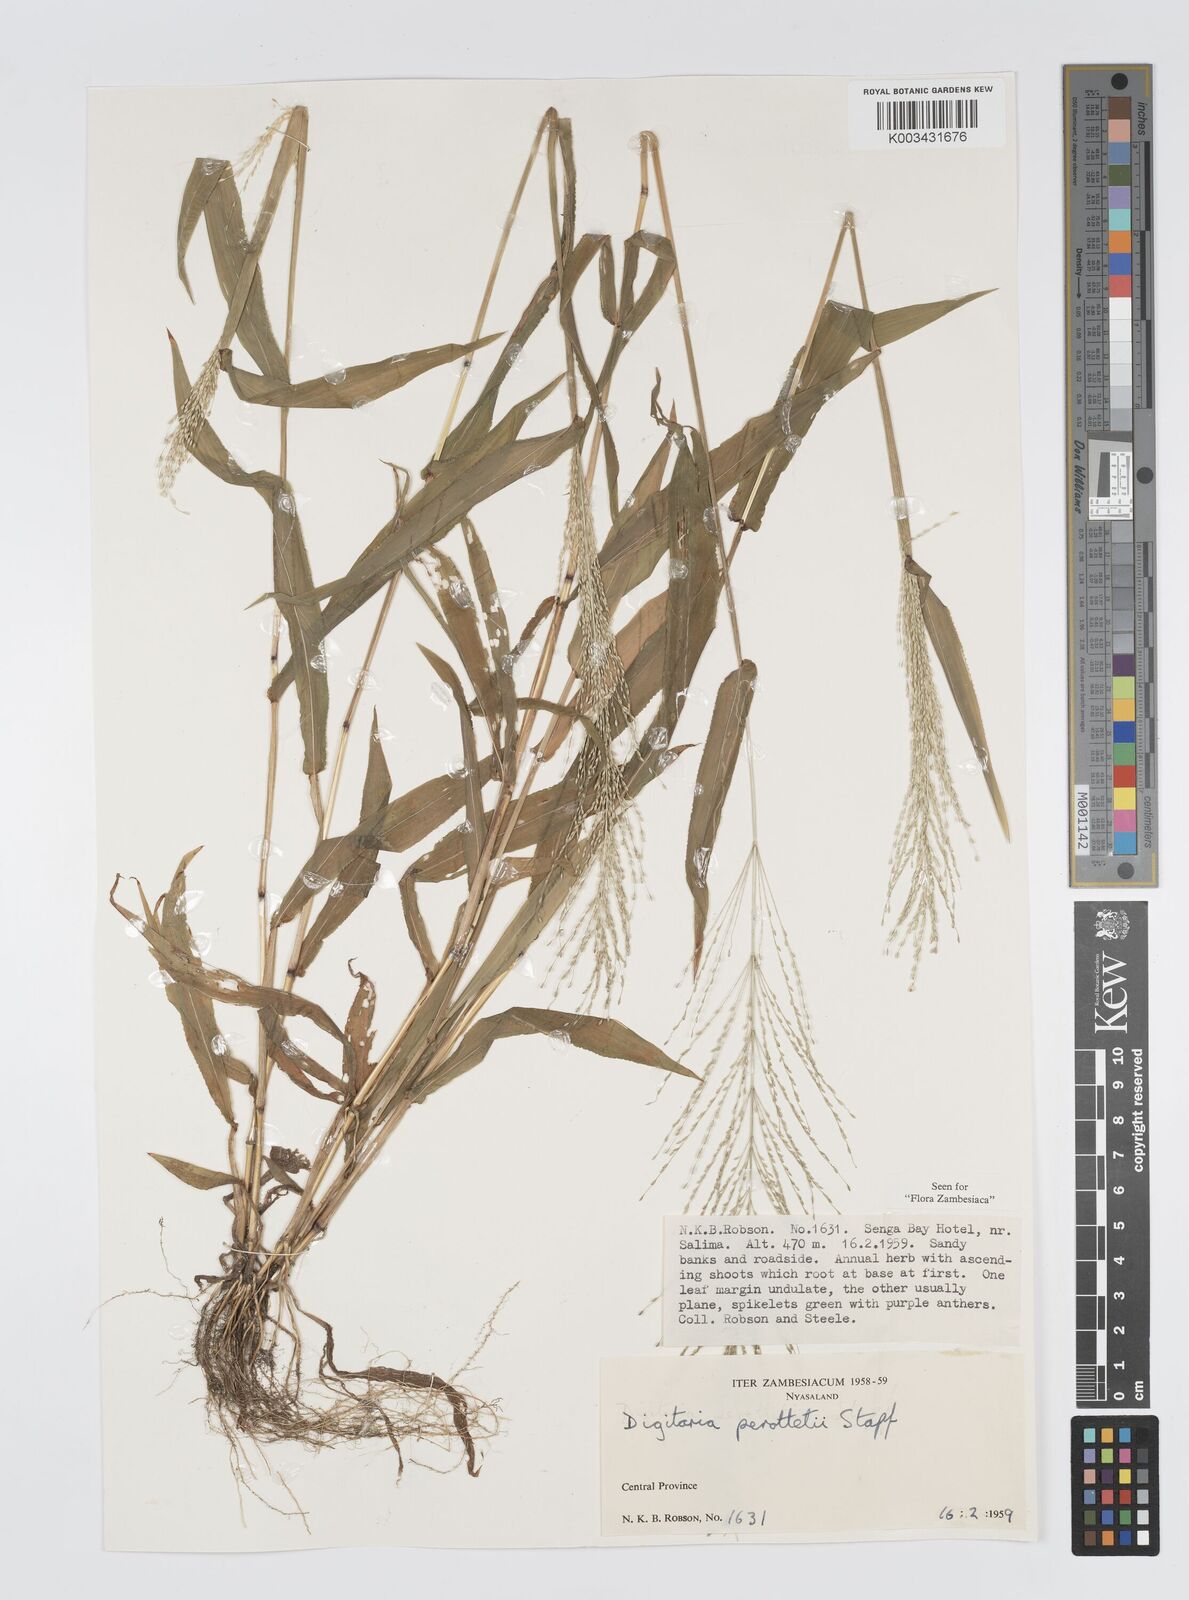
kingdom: Plantae
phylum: Tracheophyta
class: Liliopsida
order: Poales
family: Poaceae
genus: Digitaria
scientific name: Digitaria perrottetii
